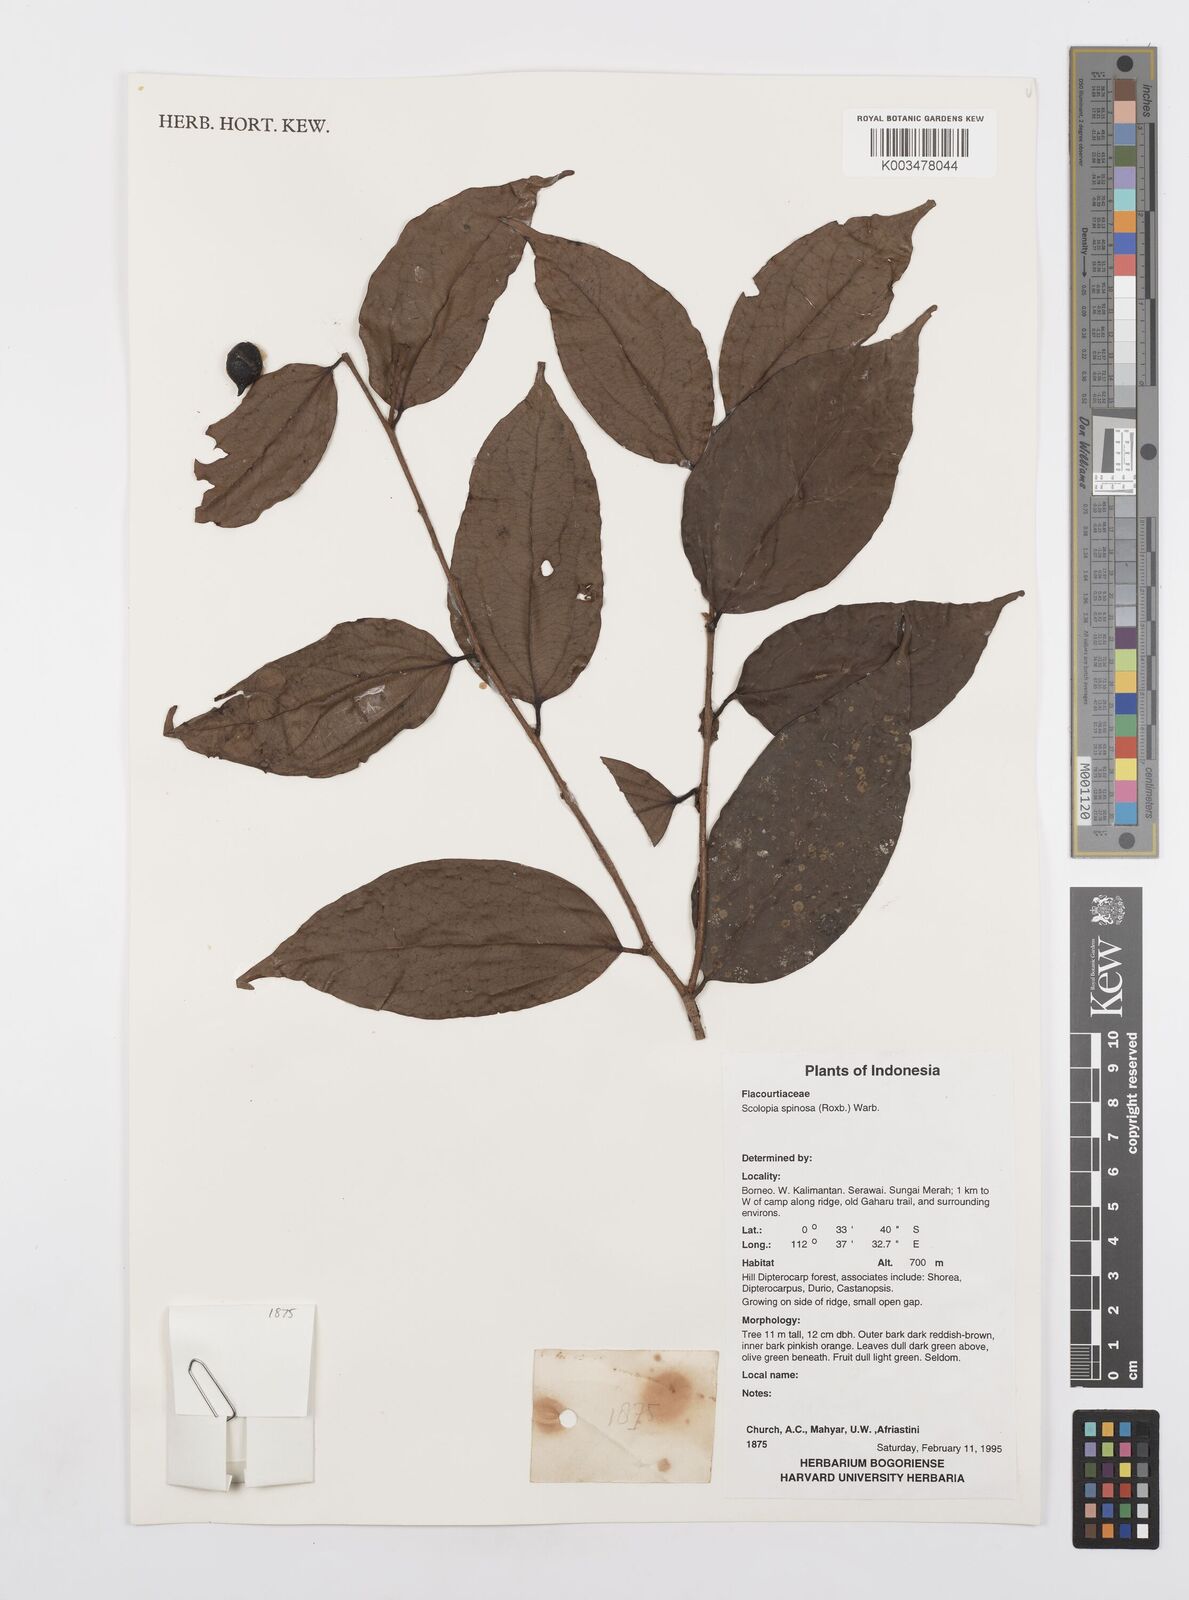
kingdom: Plantae
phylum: Tracheophyta
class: Magnoliopsida
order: Malpighiales
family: Salicaceae
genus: Scolopia
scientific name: Scolopia spinosa
